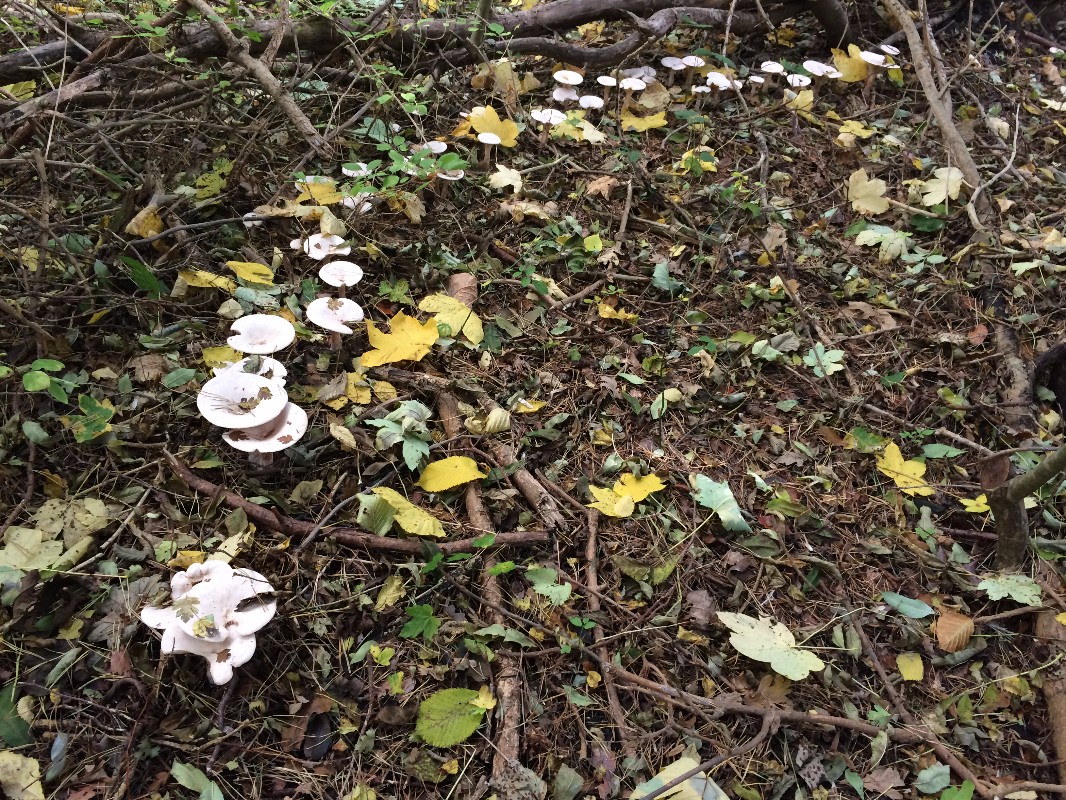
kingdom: Fungi
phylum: Basidiomycota
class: Agaricomycetes
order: Agaricales
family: Tricholomataceae
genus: Infundibulicybe
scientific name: Infundibulicybe geotropa
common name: stor tragthat
